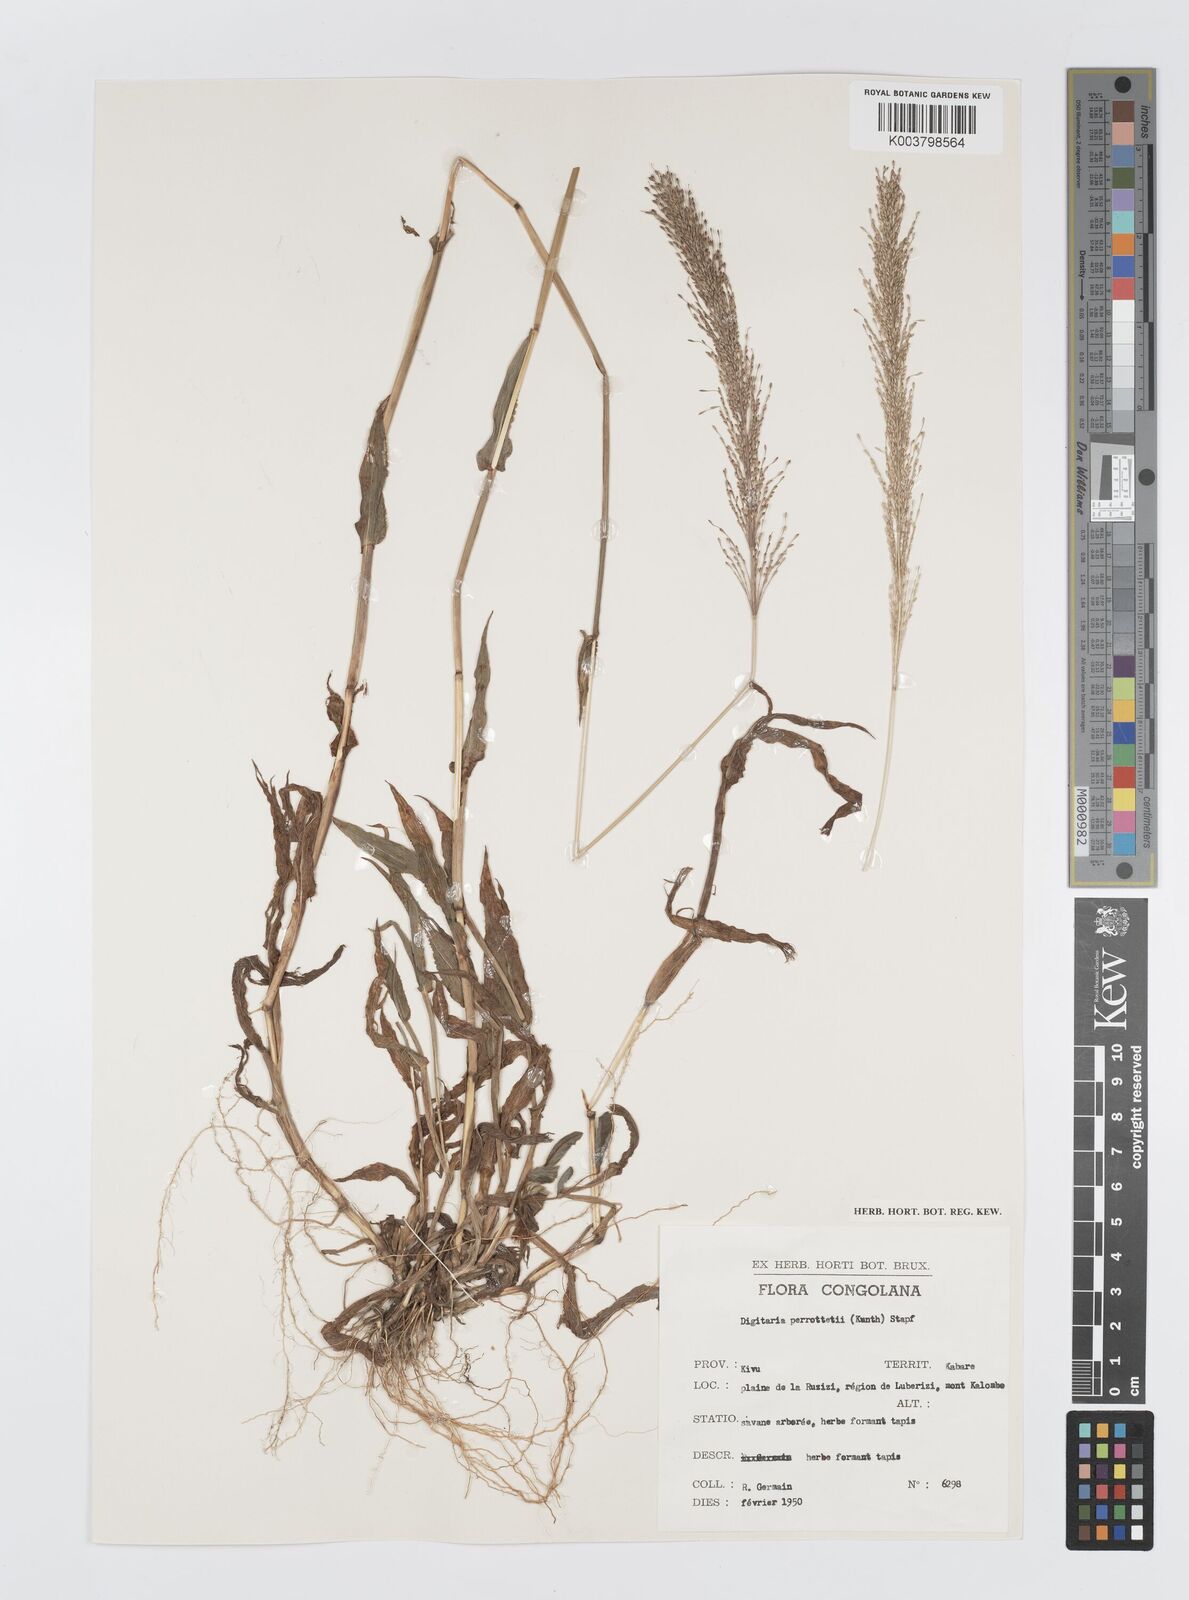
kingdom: Plantae
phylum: Tracheophyta
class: Liliopsida
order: Poales
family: Poaceae
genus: Digitaria
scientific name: Digitaria perrottetii
